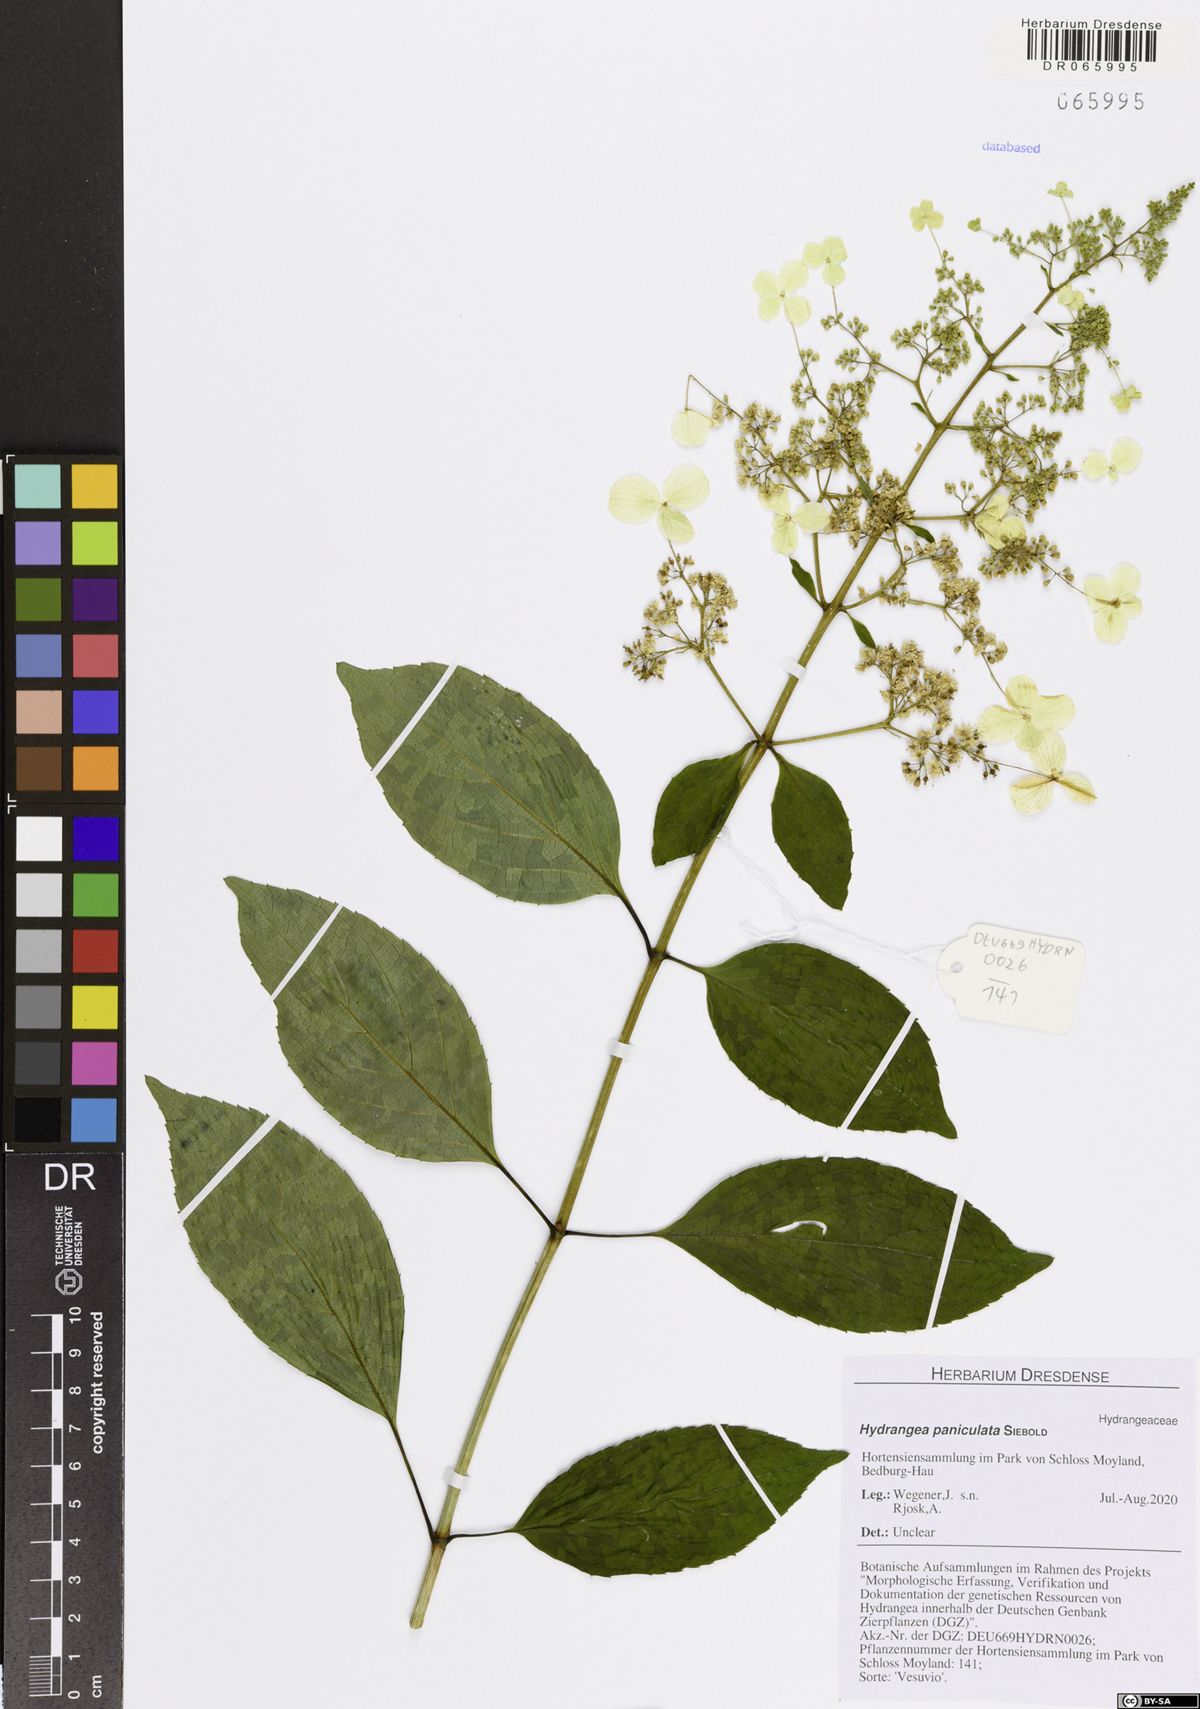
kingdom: Plantae
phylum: Tracheophyta
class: Magnoliopsida
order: Cornales
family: Hydrangeaceae
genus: Hydrangea
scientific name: Hydrangea paniculata
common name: Panicled hydrangea
